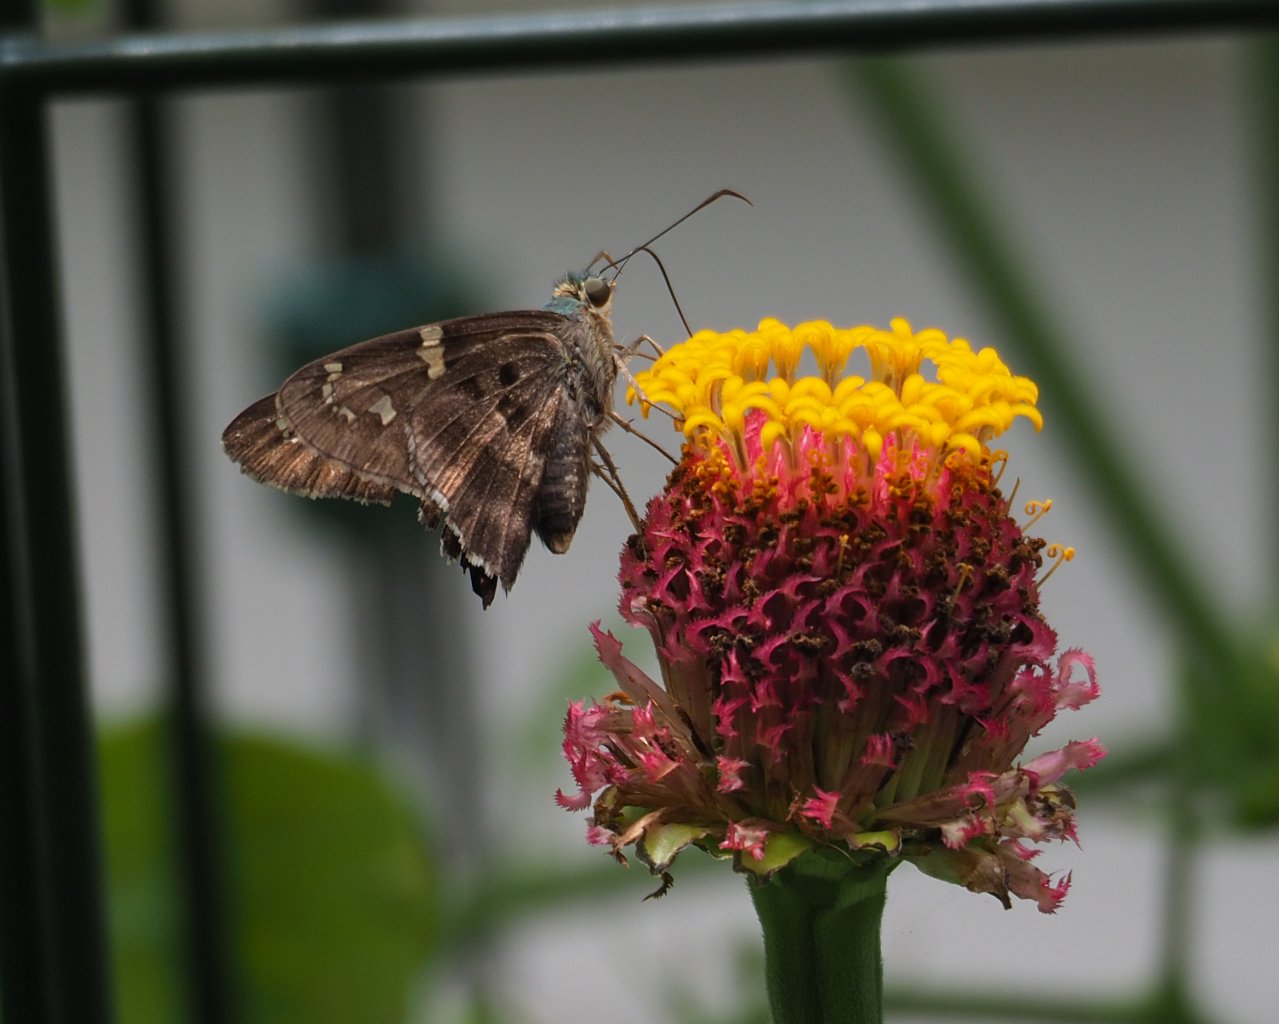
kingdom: Animalia
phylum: Arthropoda
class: Insecta
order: Lepidoptera
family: Hesperiidae
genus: Urbanus
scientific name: Urbanus proteus
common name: Long-tailed Skipper
